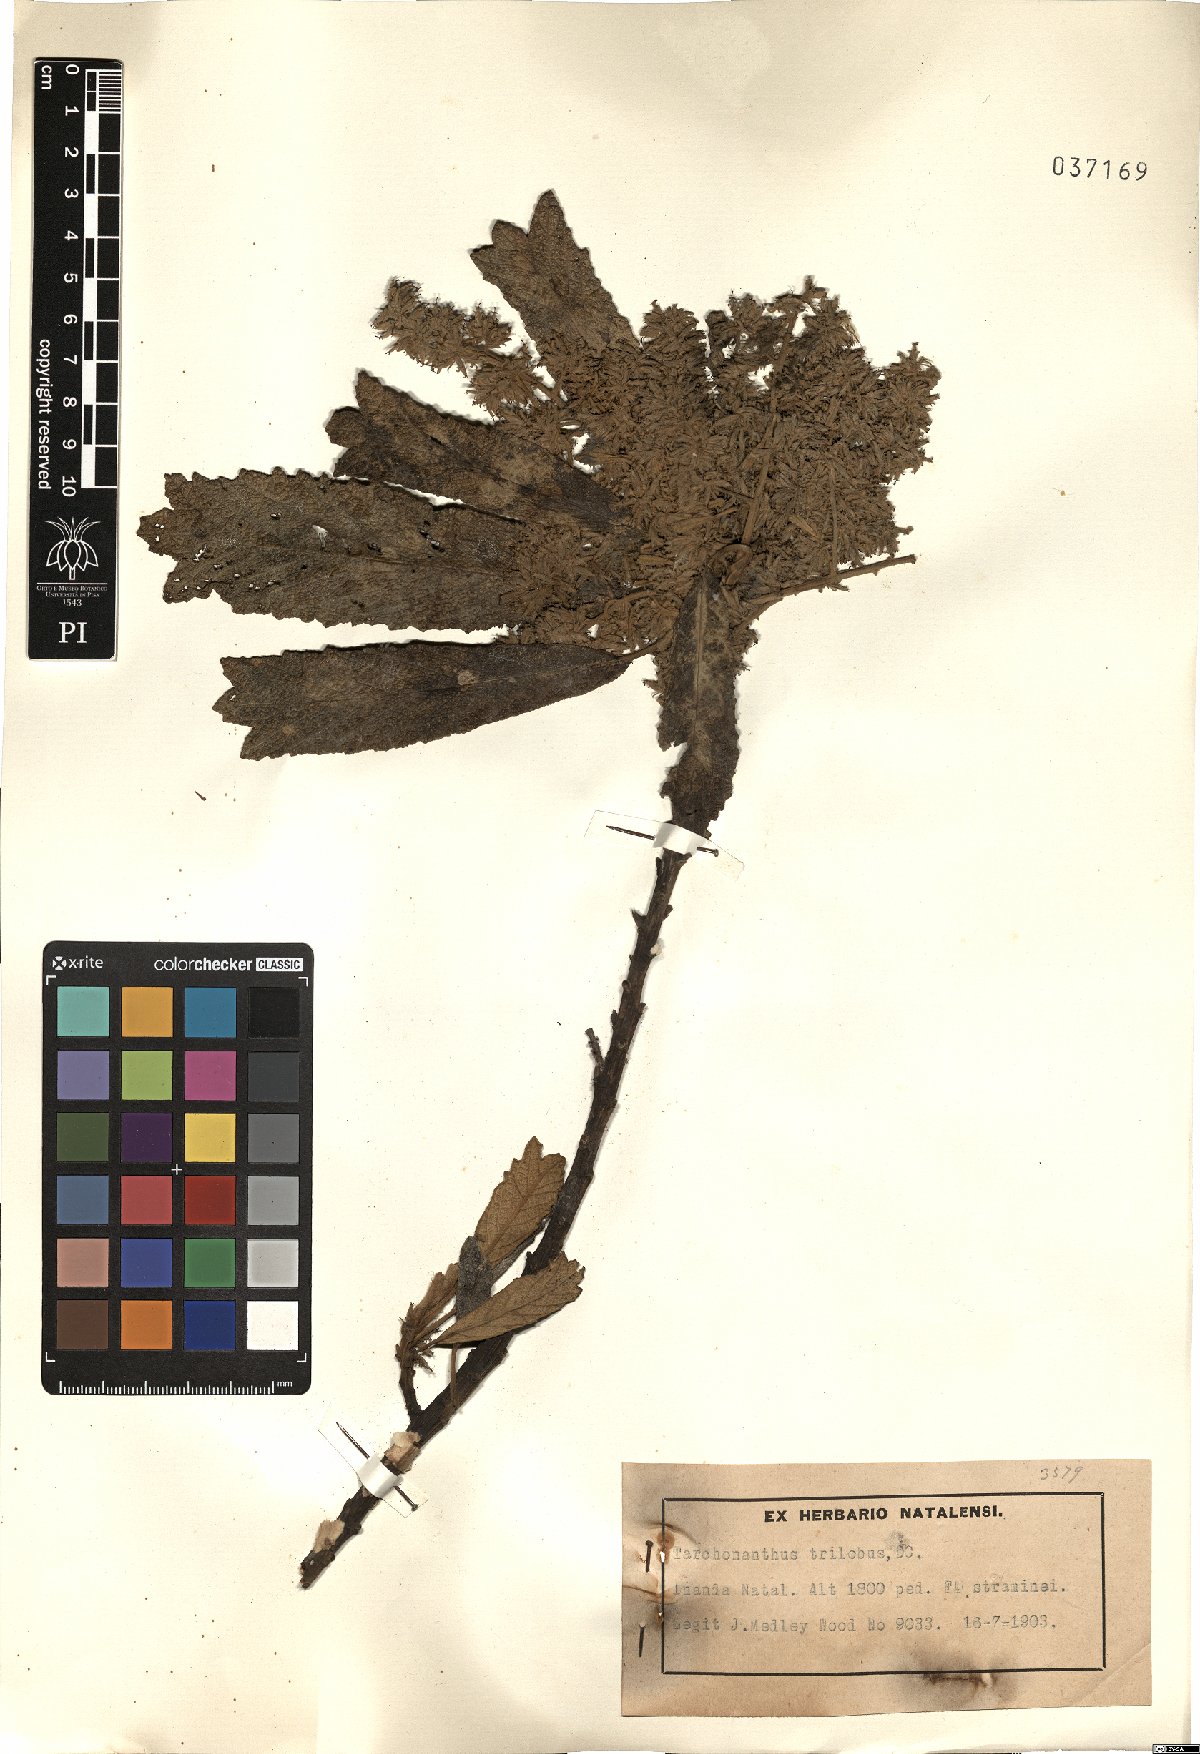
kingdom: Plantae
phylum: Tracheophyta
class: Magnoliopsida
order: Asterales
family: Asteraceae
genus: Tarchonanthus
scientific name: Tarchonanthus trilobus
